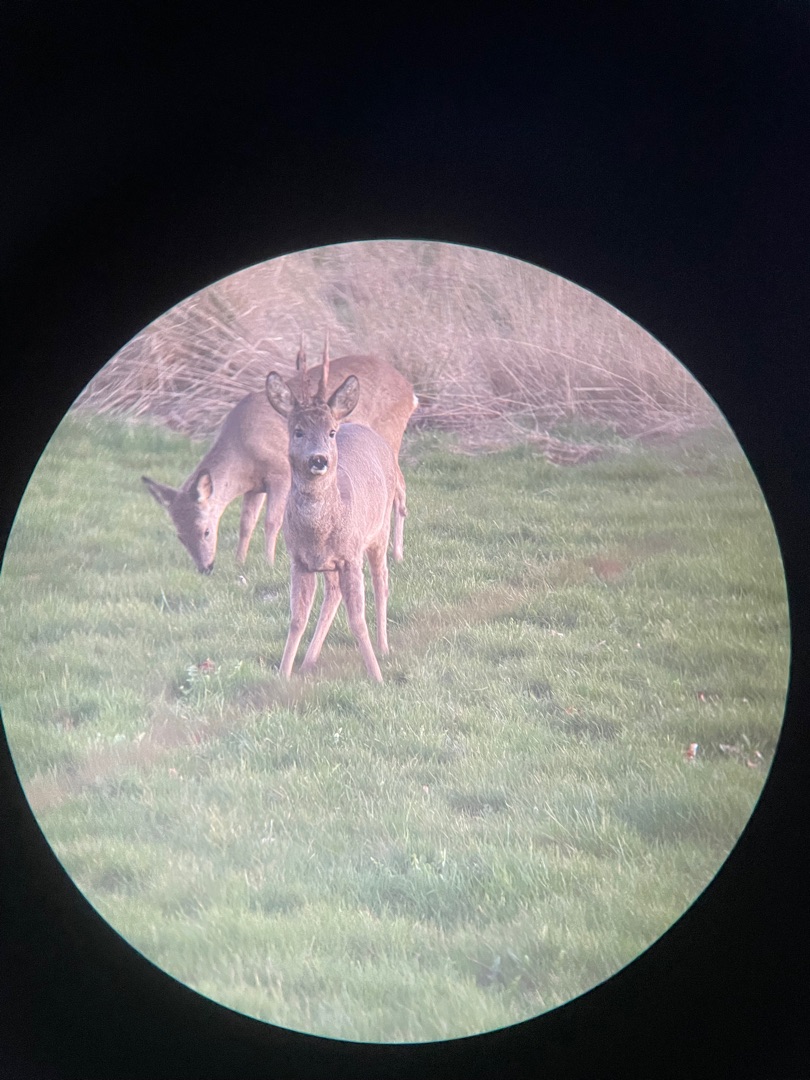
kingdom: Animalia
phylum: Chordata
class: Mammalia
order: Artiodactyla
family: Cervidae
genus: Capreolus
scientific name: Capreolus capreolus
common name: Rådyr
